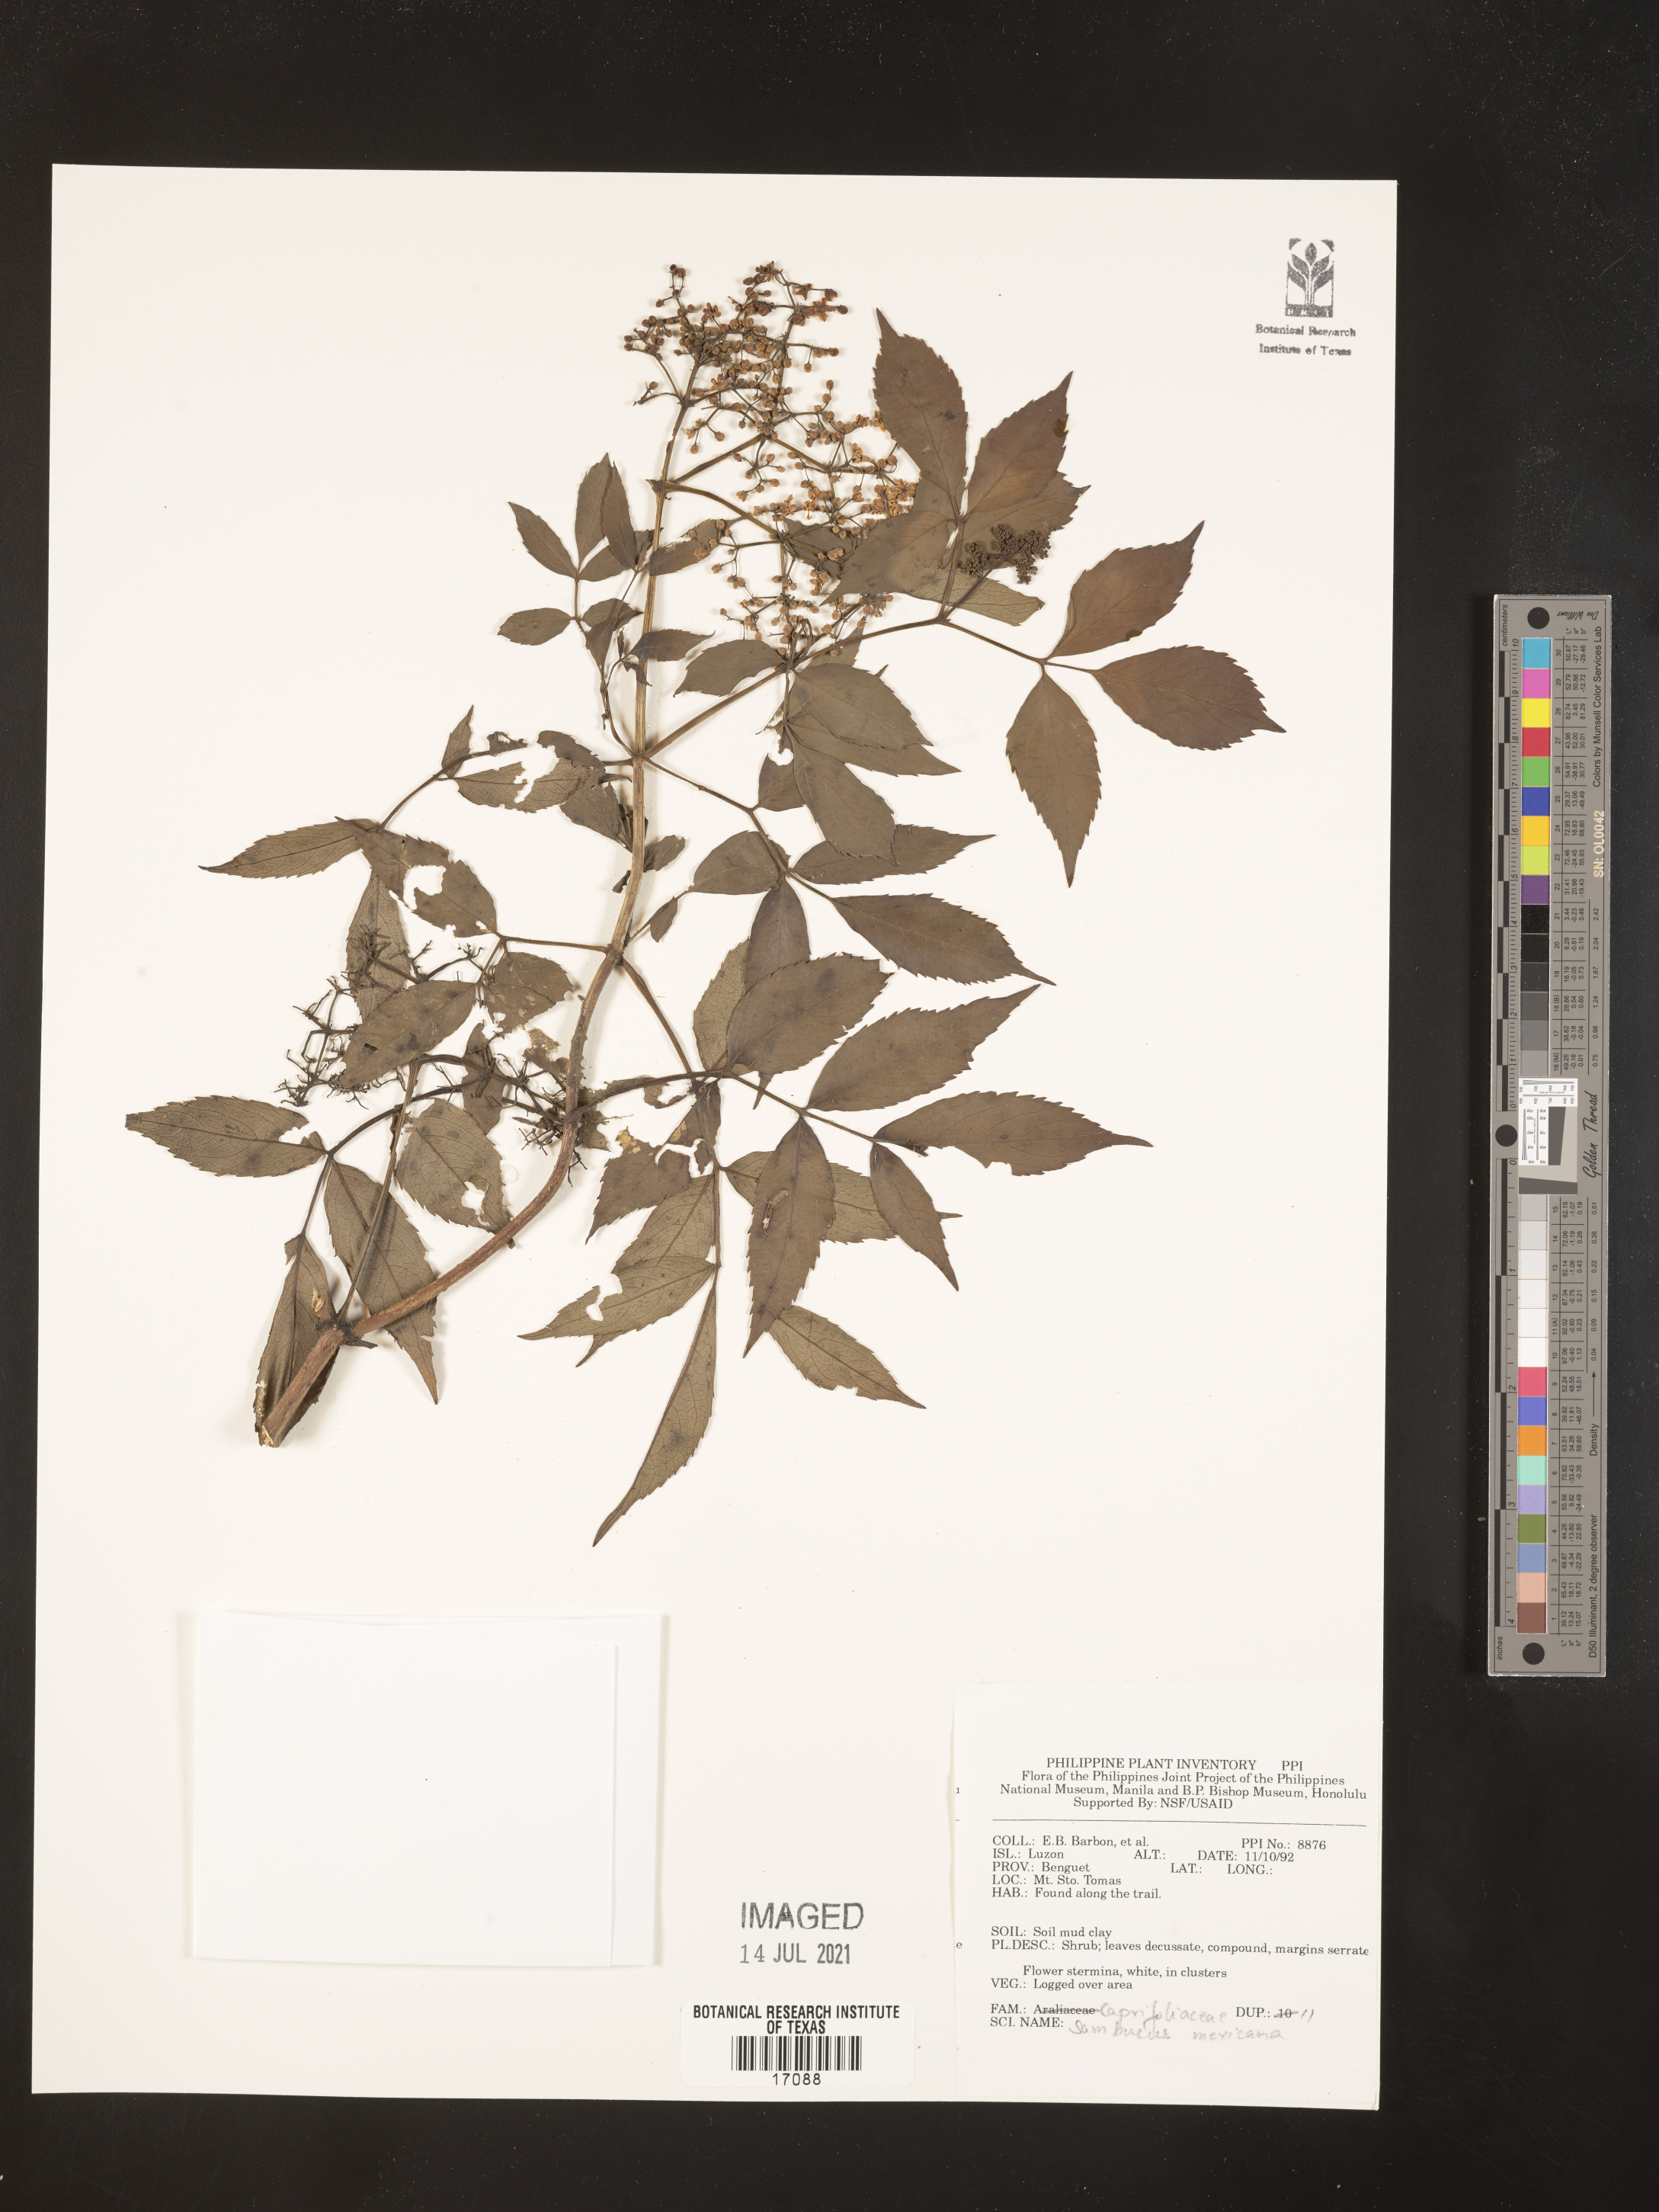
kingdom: Plantae
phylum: Tracheophyta
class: Magnoliopsida
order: Dipsacales
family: Viburnaceae
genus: Sambucus
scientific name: Sambucus mexicana
